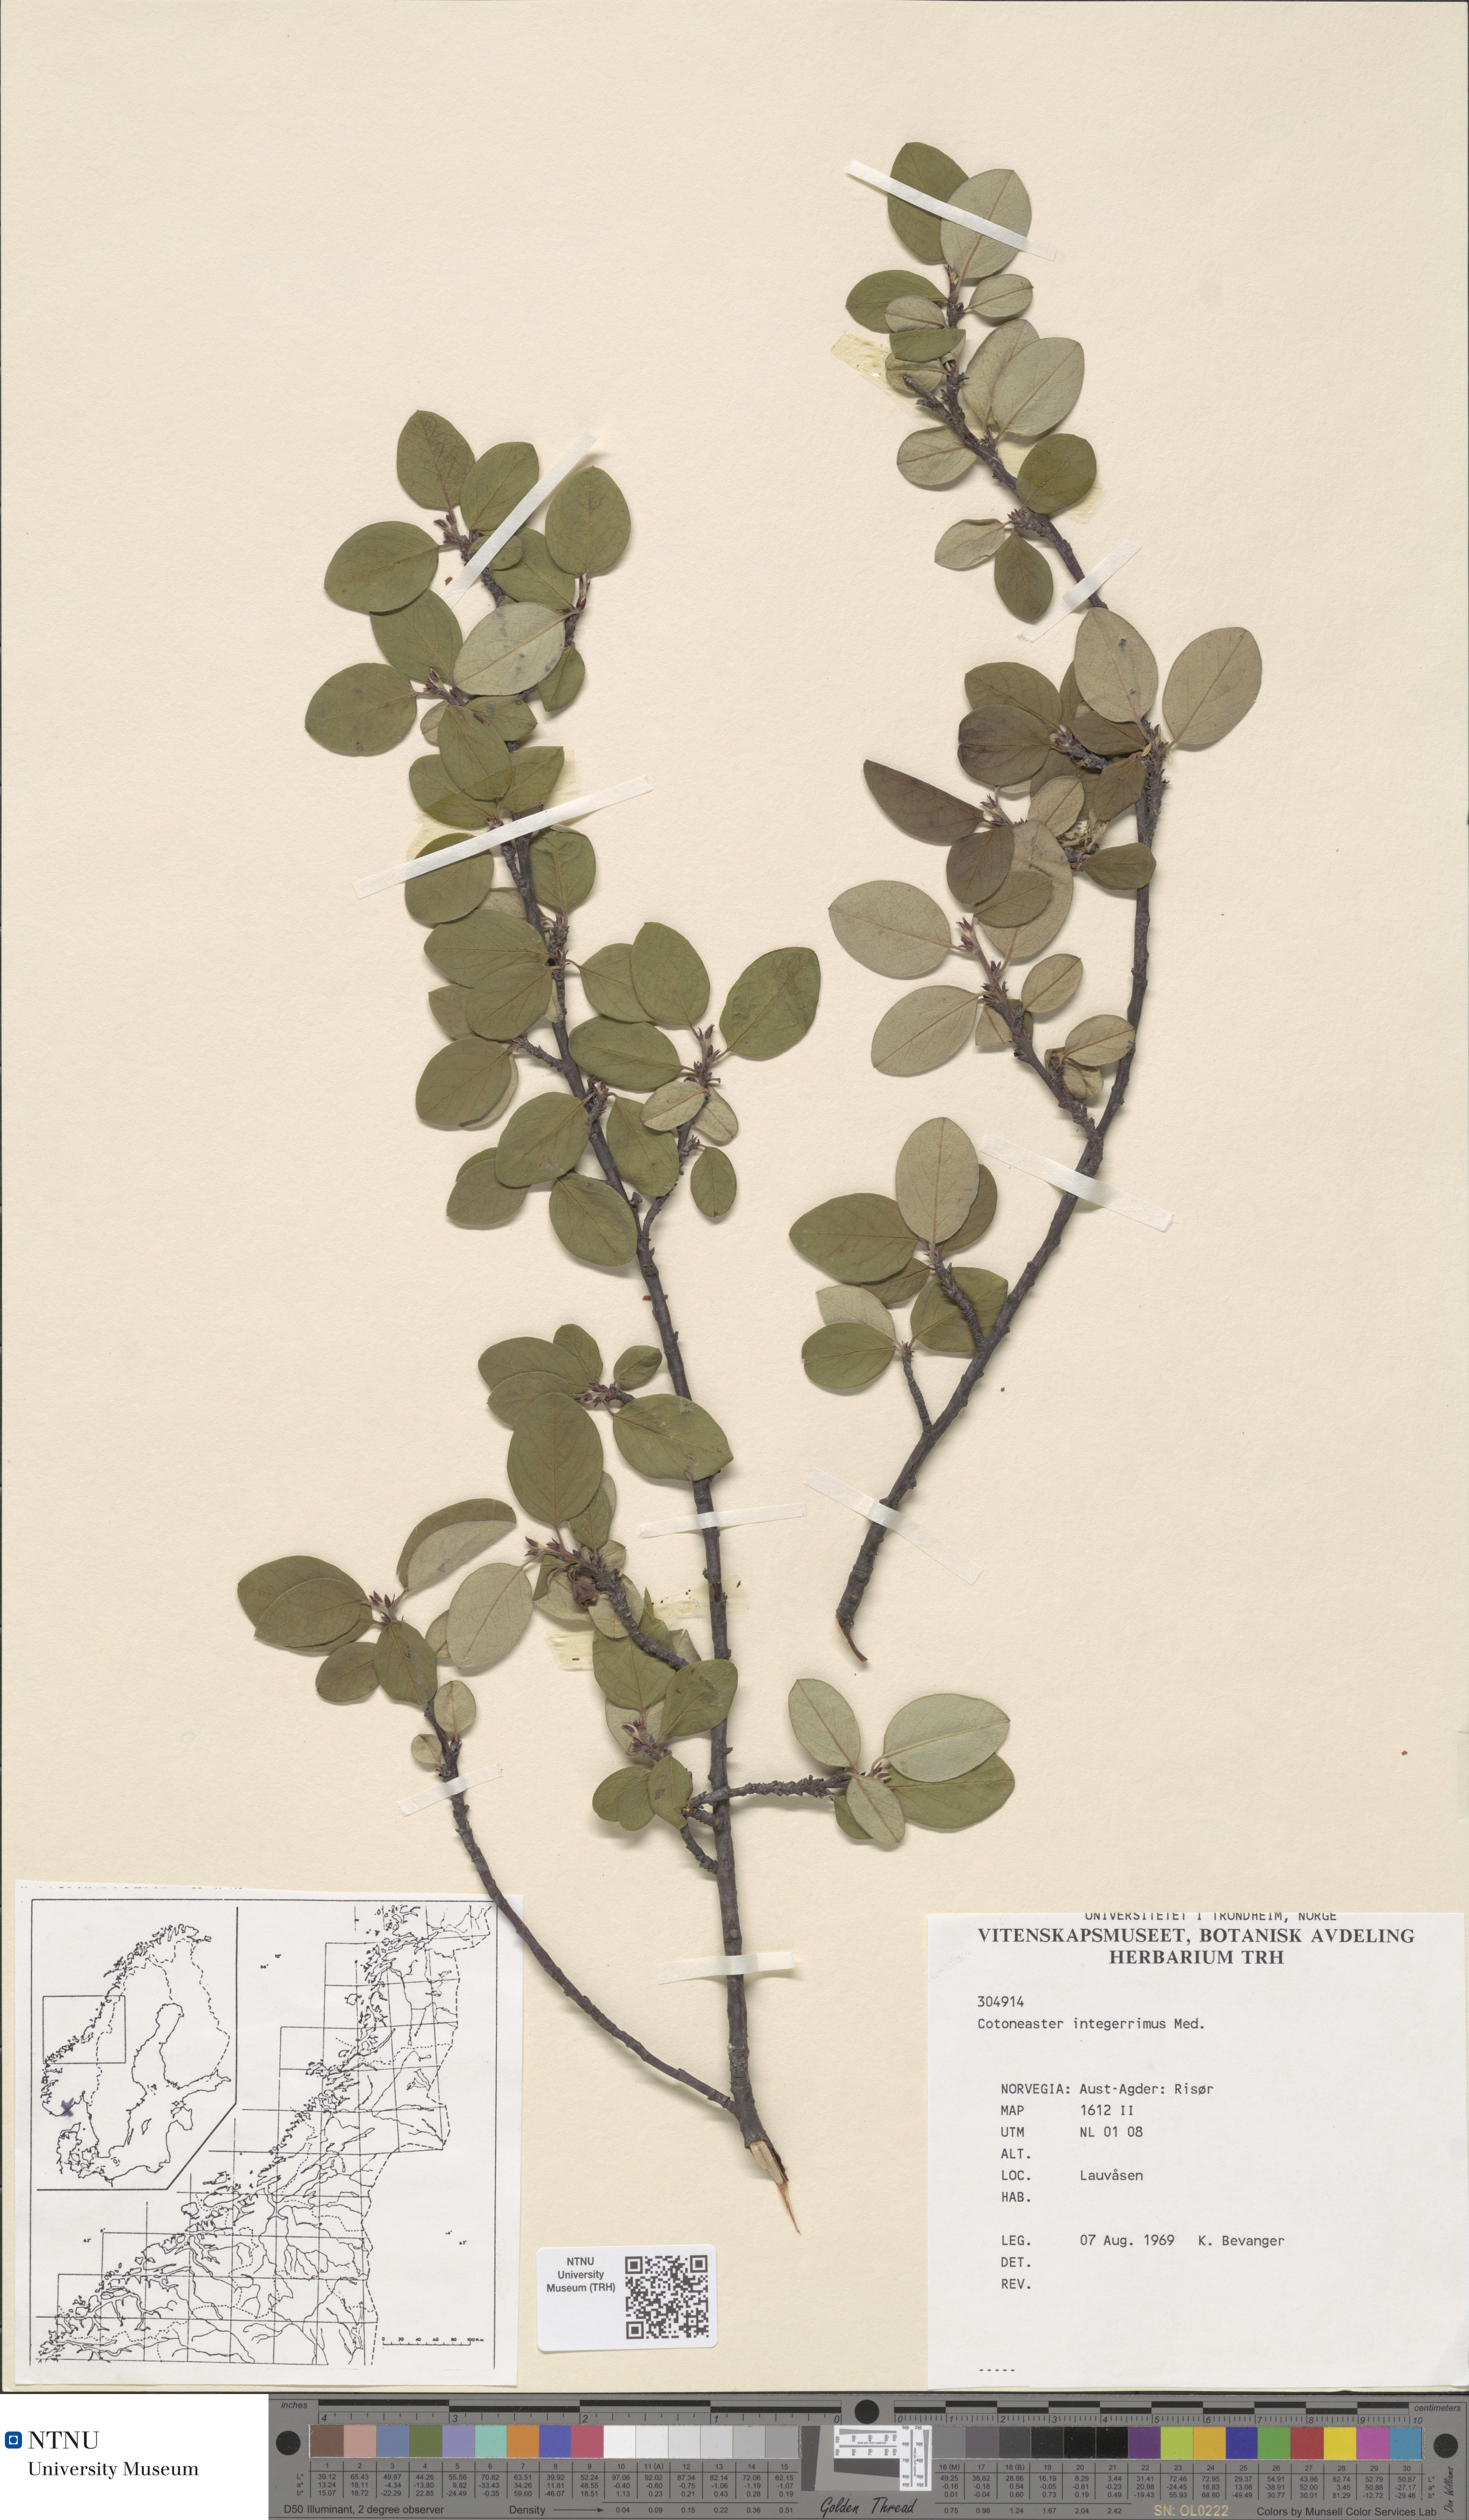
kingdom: Plantae
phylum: Tracheophyta
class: Magnoliopsida
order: Rosales
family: Rosaceae
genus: Cotoneaster
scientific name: Cotoneaster integerrimus
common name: Wild cotoneaster
